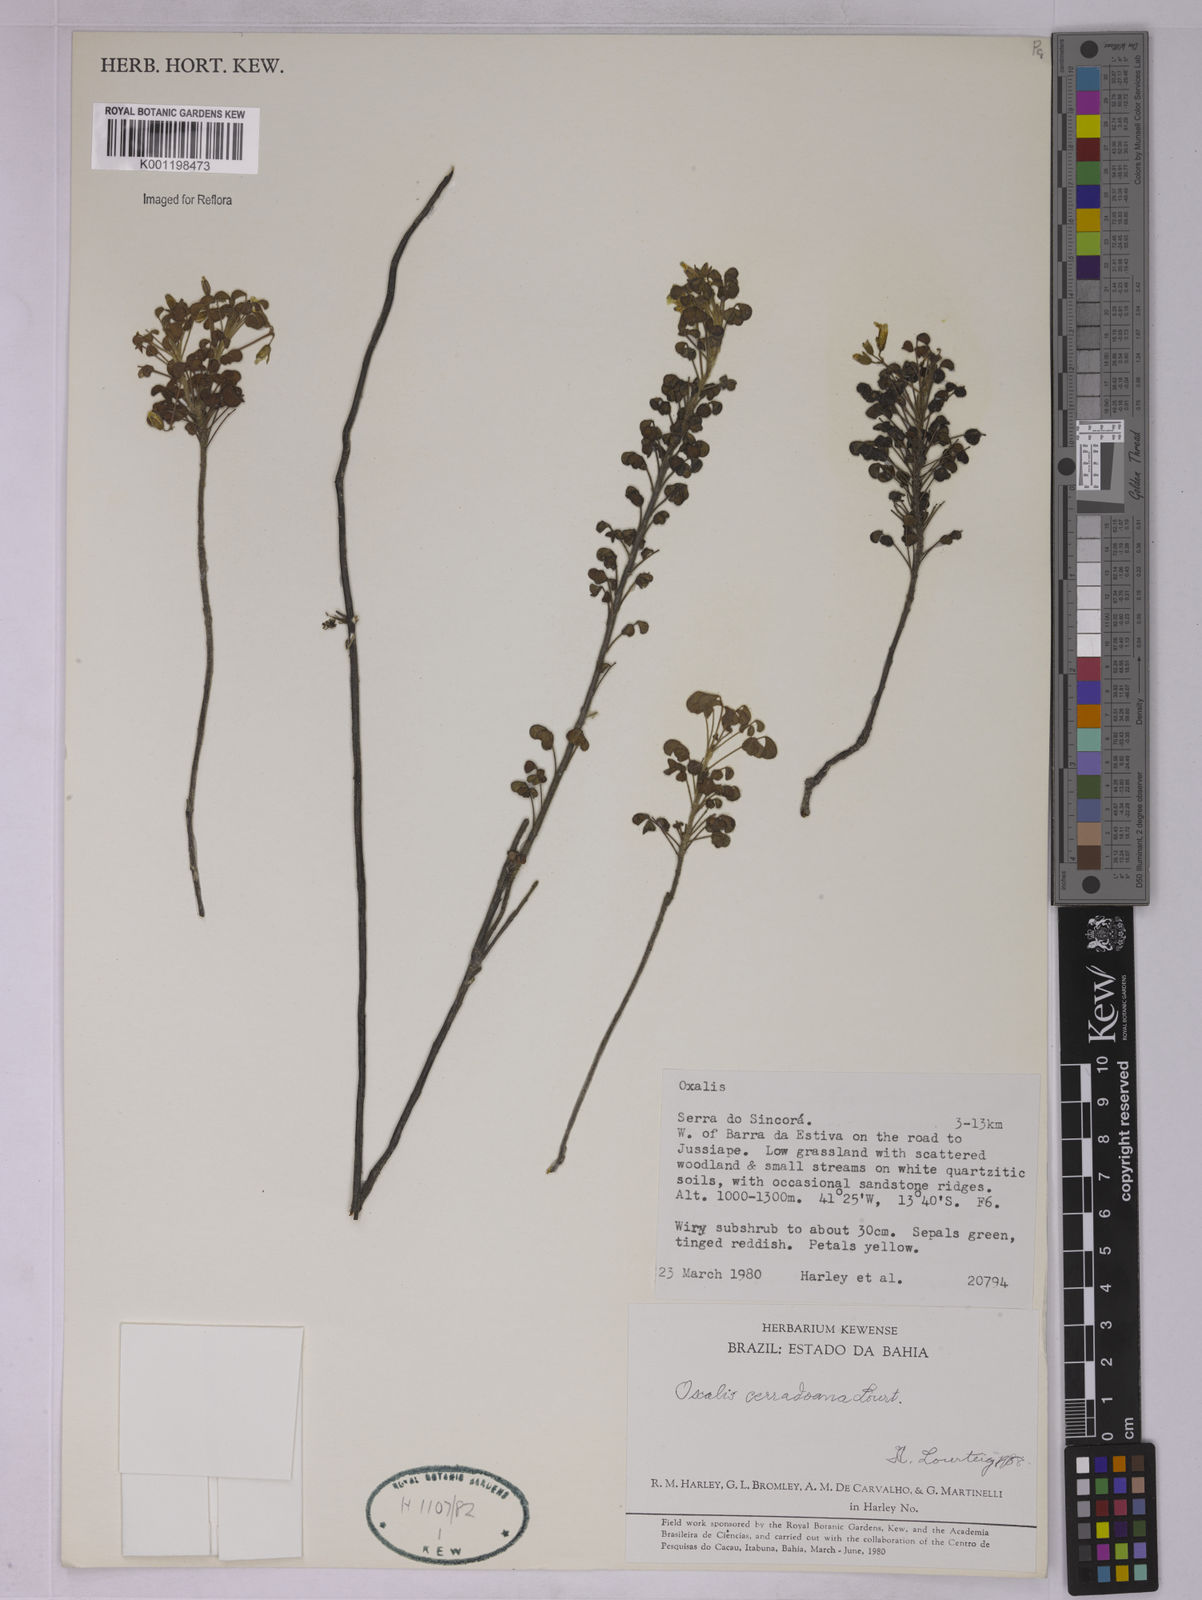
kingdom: Plantae
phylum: Tracheophyta
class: Magnoliopsida
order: Oxalidales
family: Oxalidaceae
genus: Oxalis
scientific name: Oxalis cerradoana
